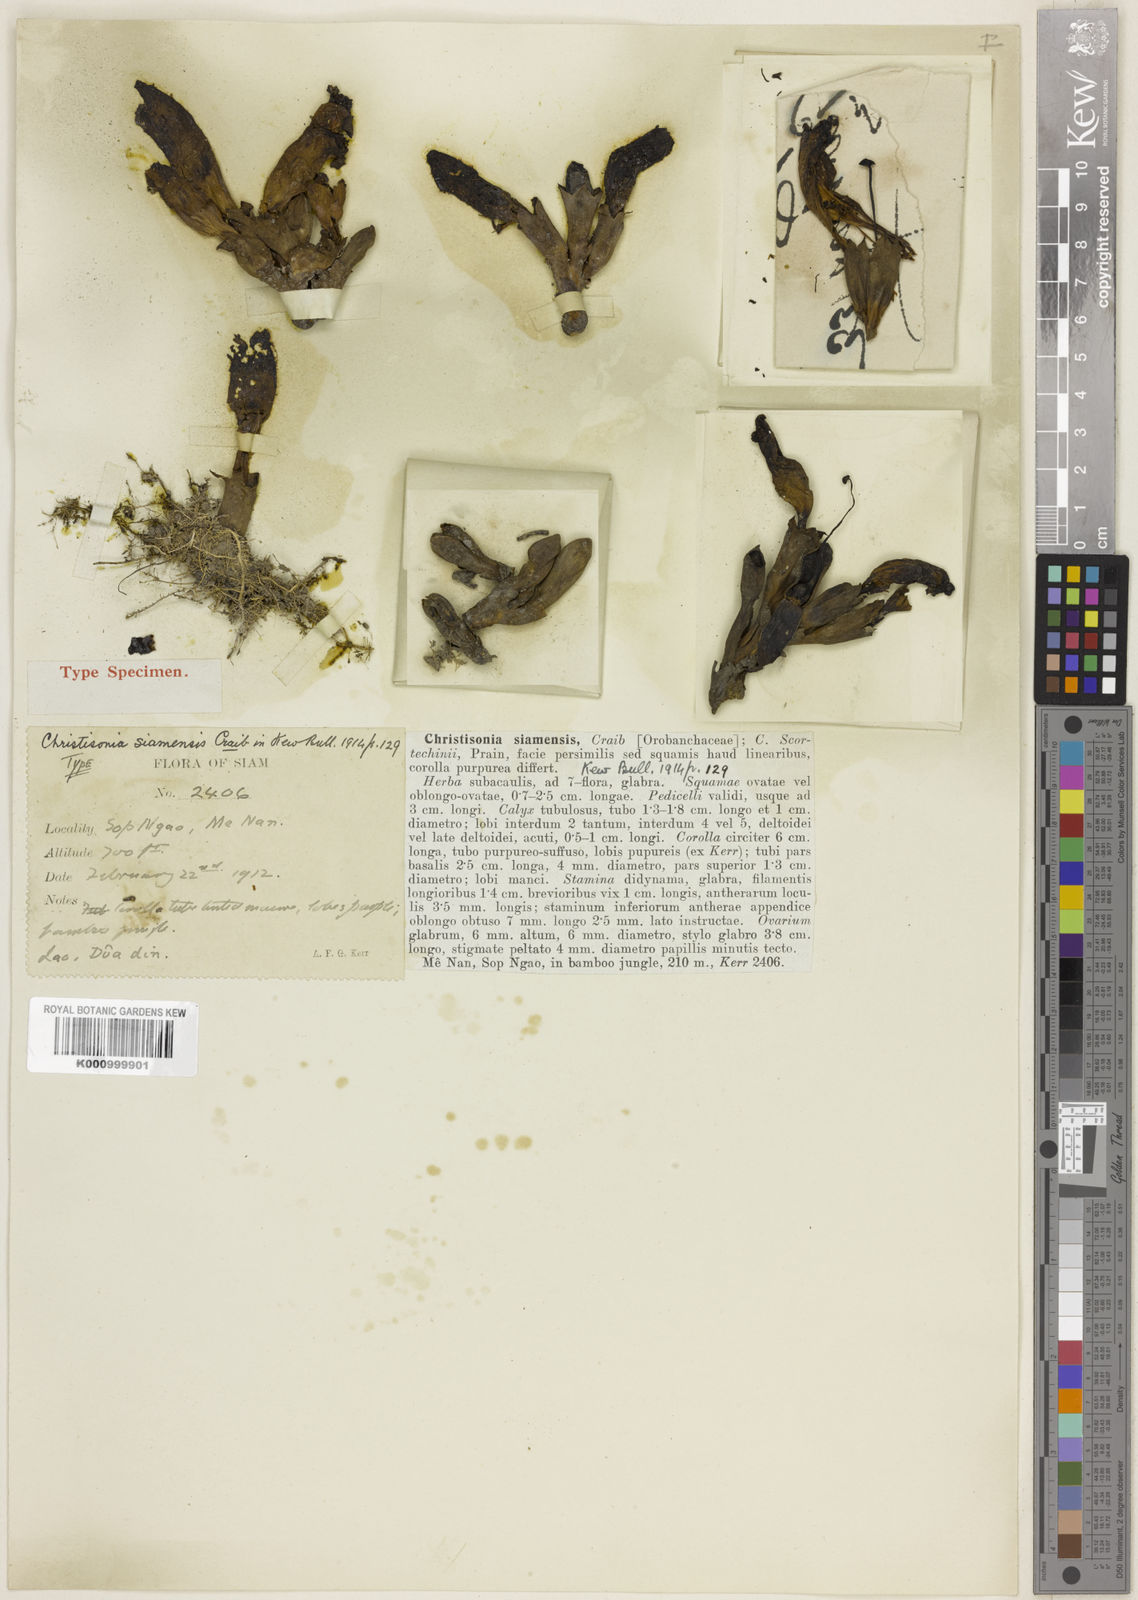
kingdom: Plantae
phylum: Tracheophyta
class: Magnoliopsida
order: Lamiales
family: Orobanchaceae
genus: Christisonia
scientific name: Christisonia siamensis
